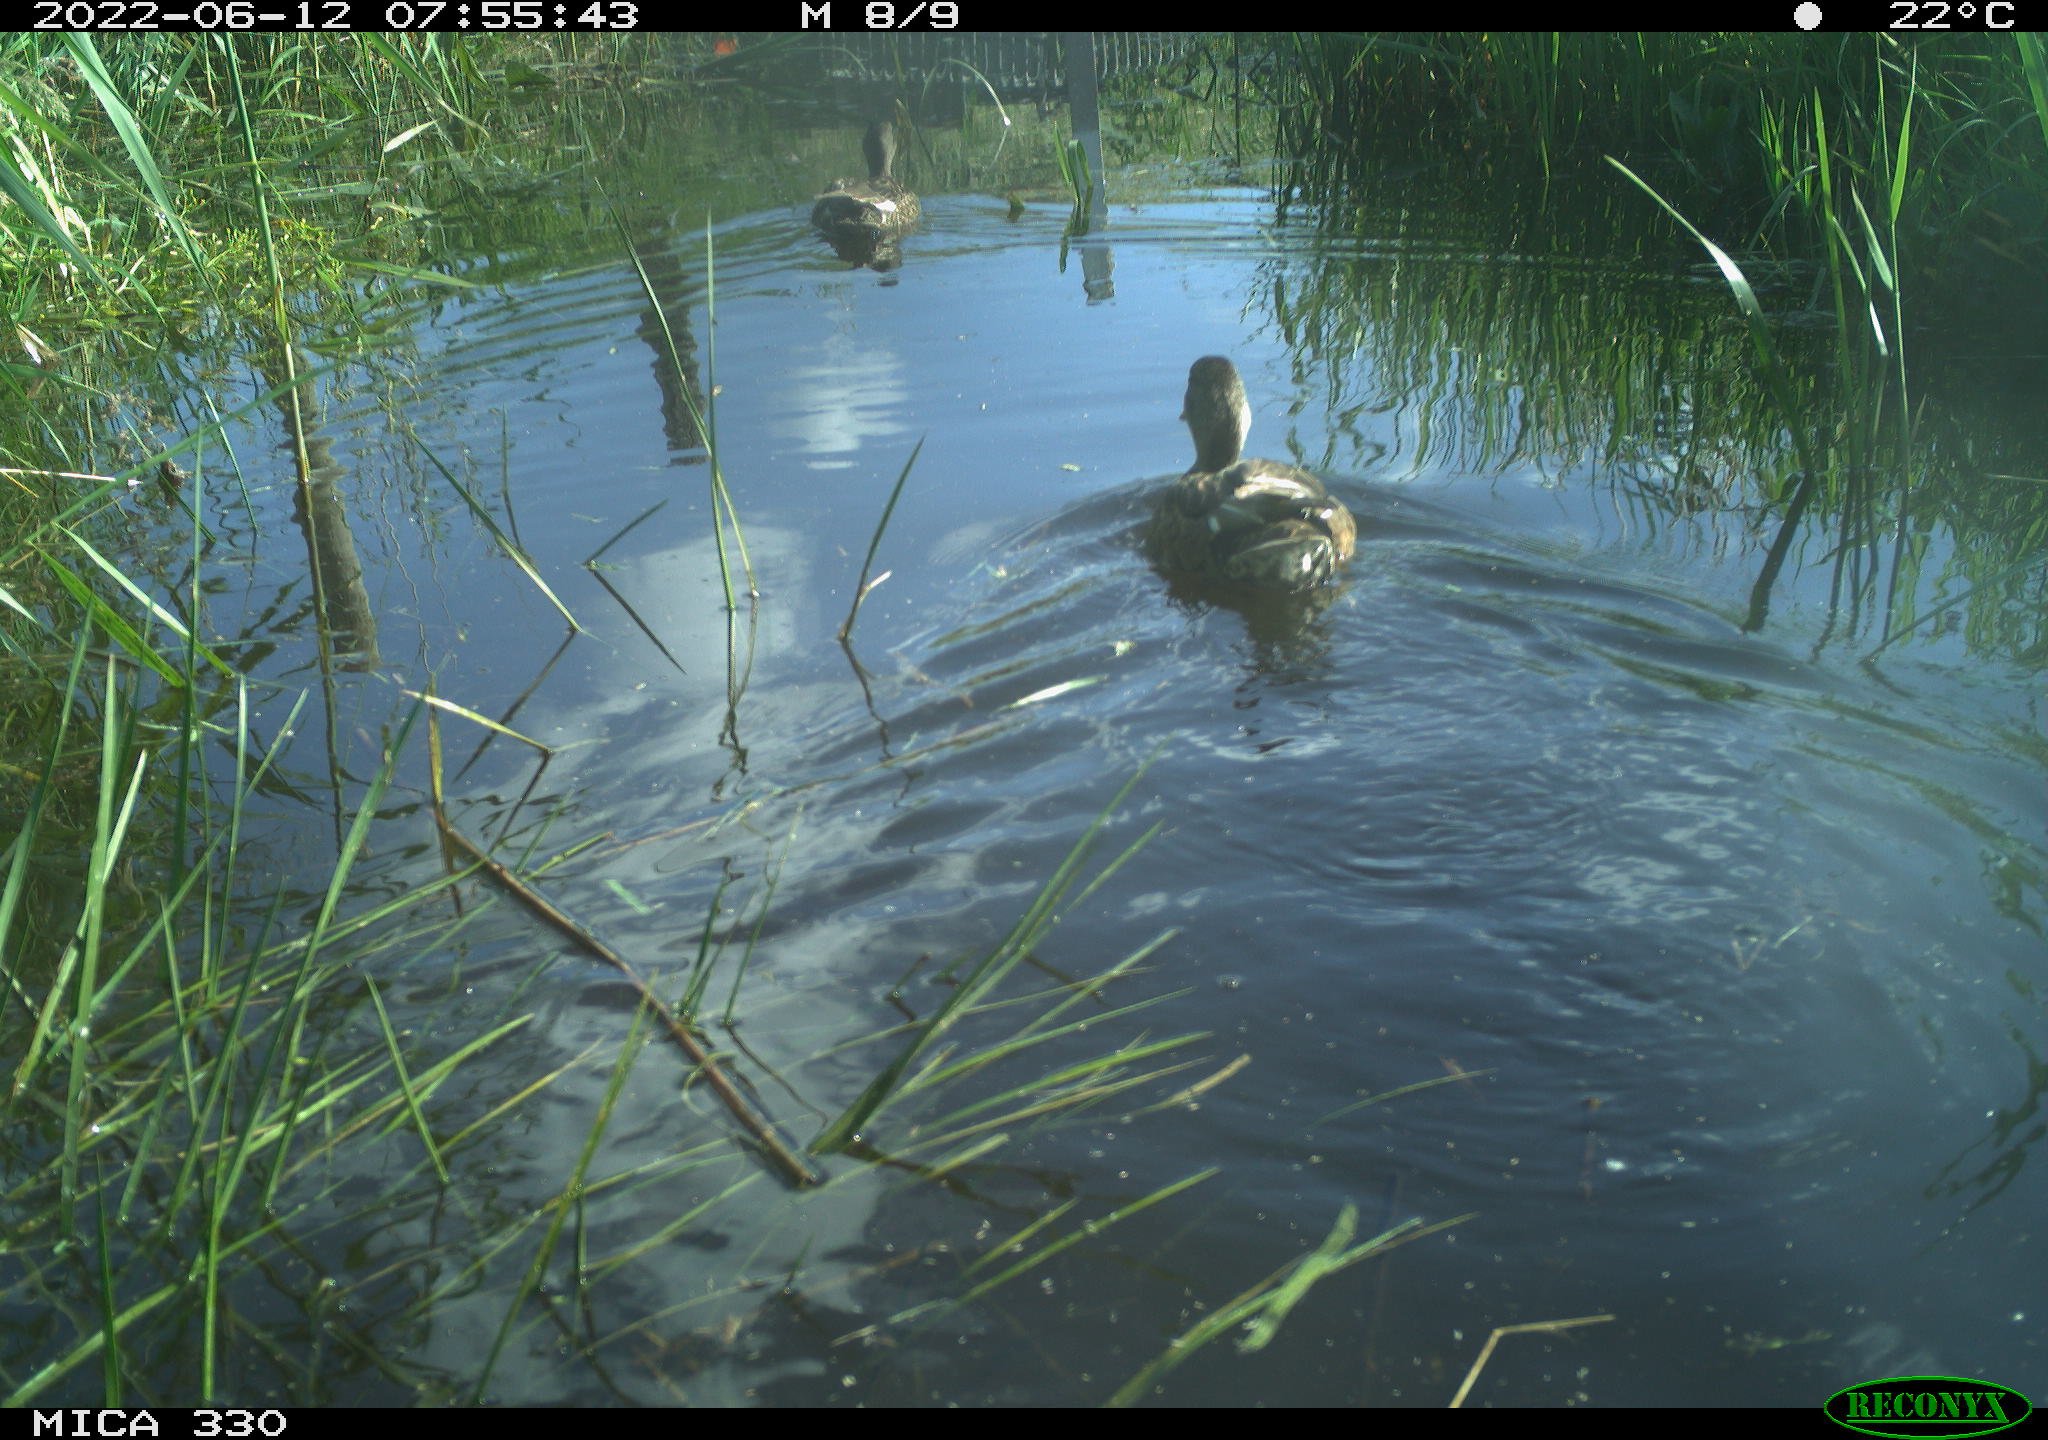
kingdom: Animalia
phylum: Chordata
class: Aves
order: Anseriformes
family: Anatidae
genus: Anas
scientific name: Anas platyrhynchos
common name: Mallard
